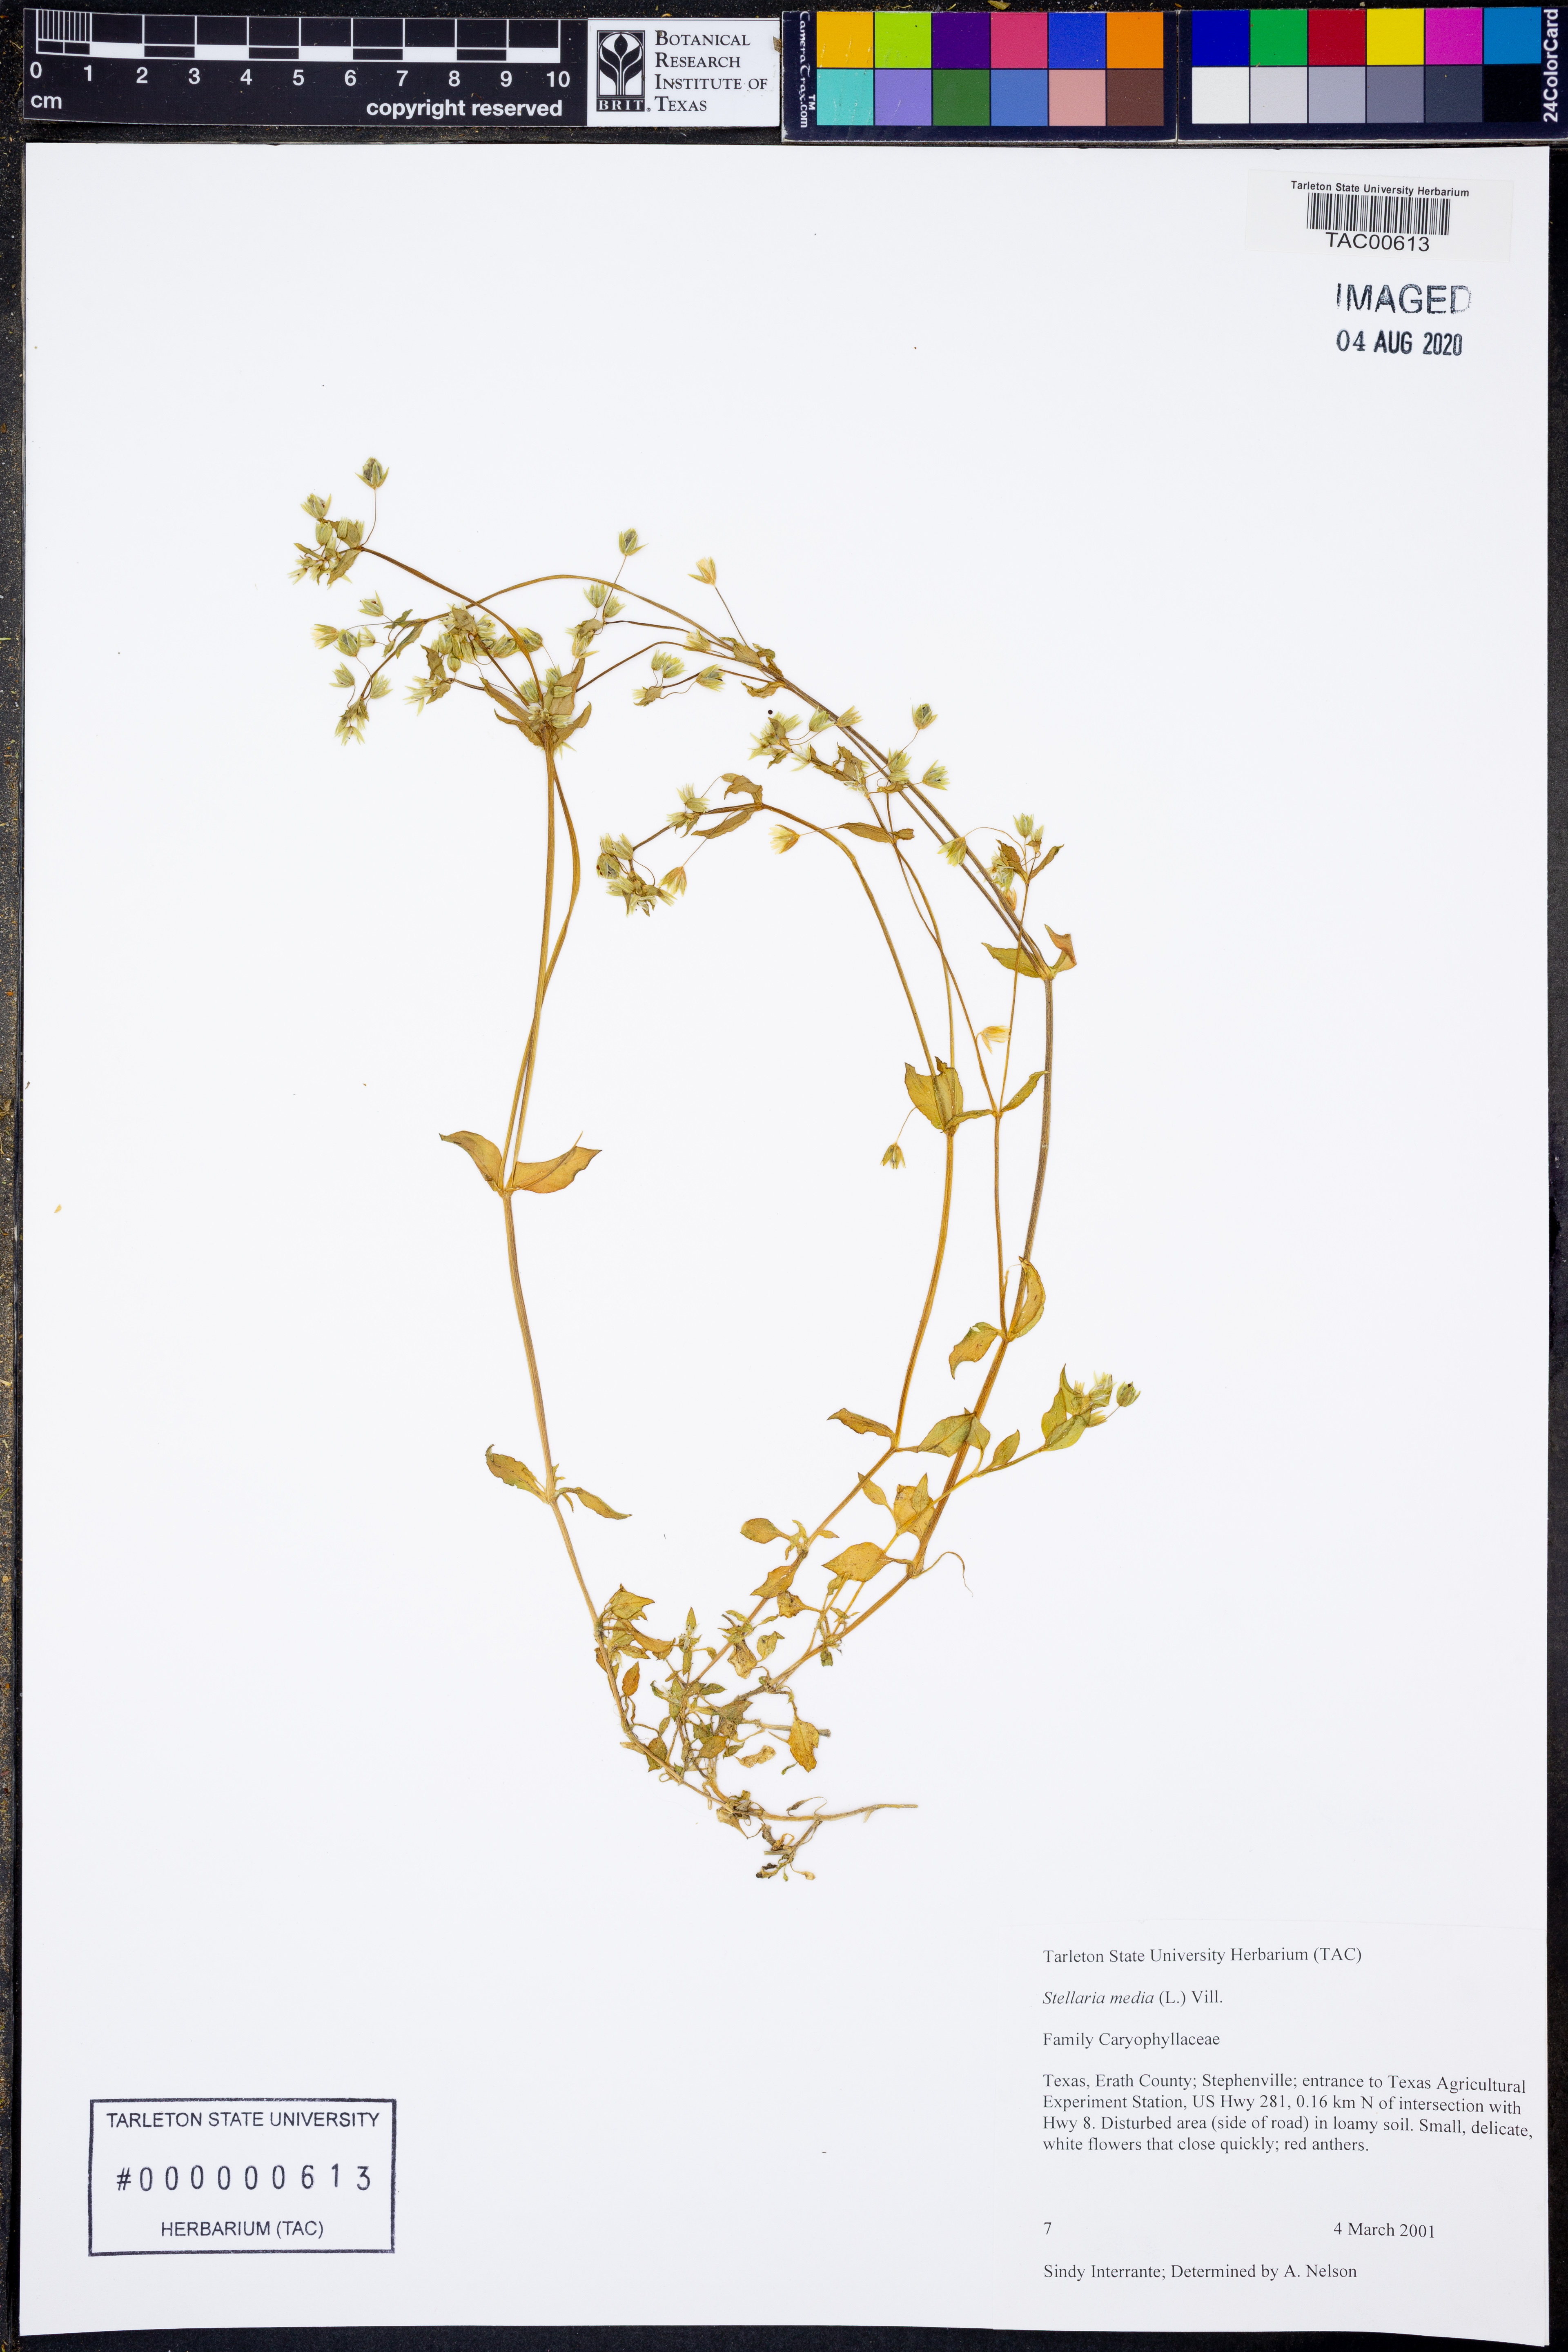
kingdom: Plantae
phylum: Tracheophyta
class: Magnoliopsida
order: Caryophyllales
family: Caryophyllaceae
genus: Stellaria
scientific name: Stellaria media
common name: Common chickweed
